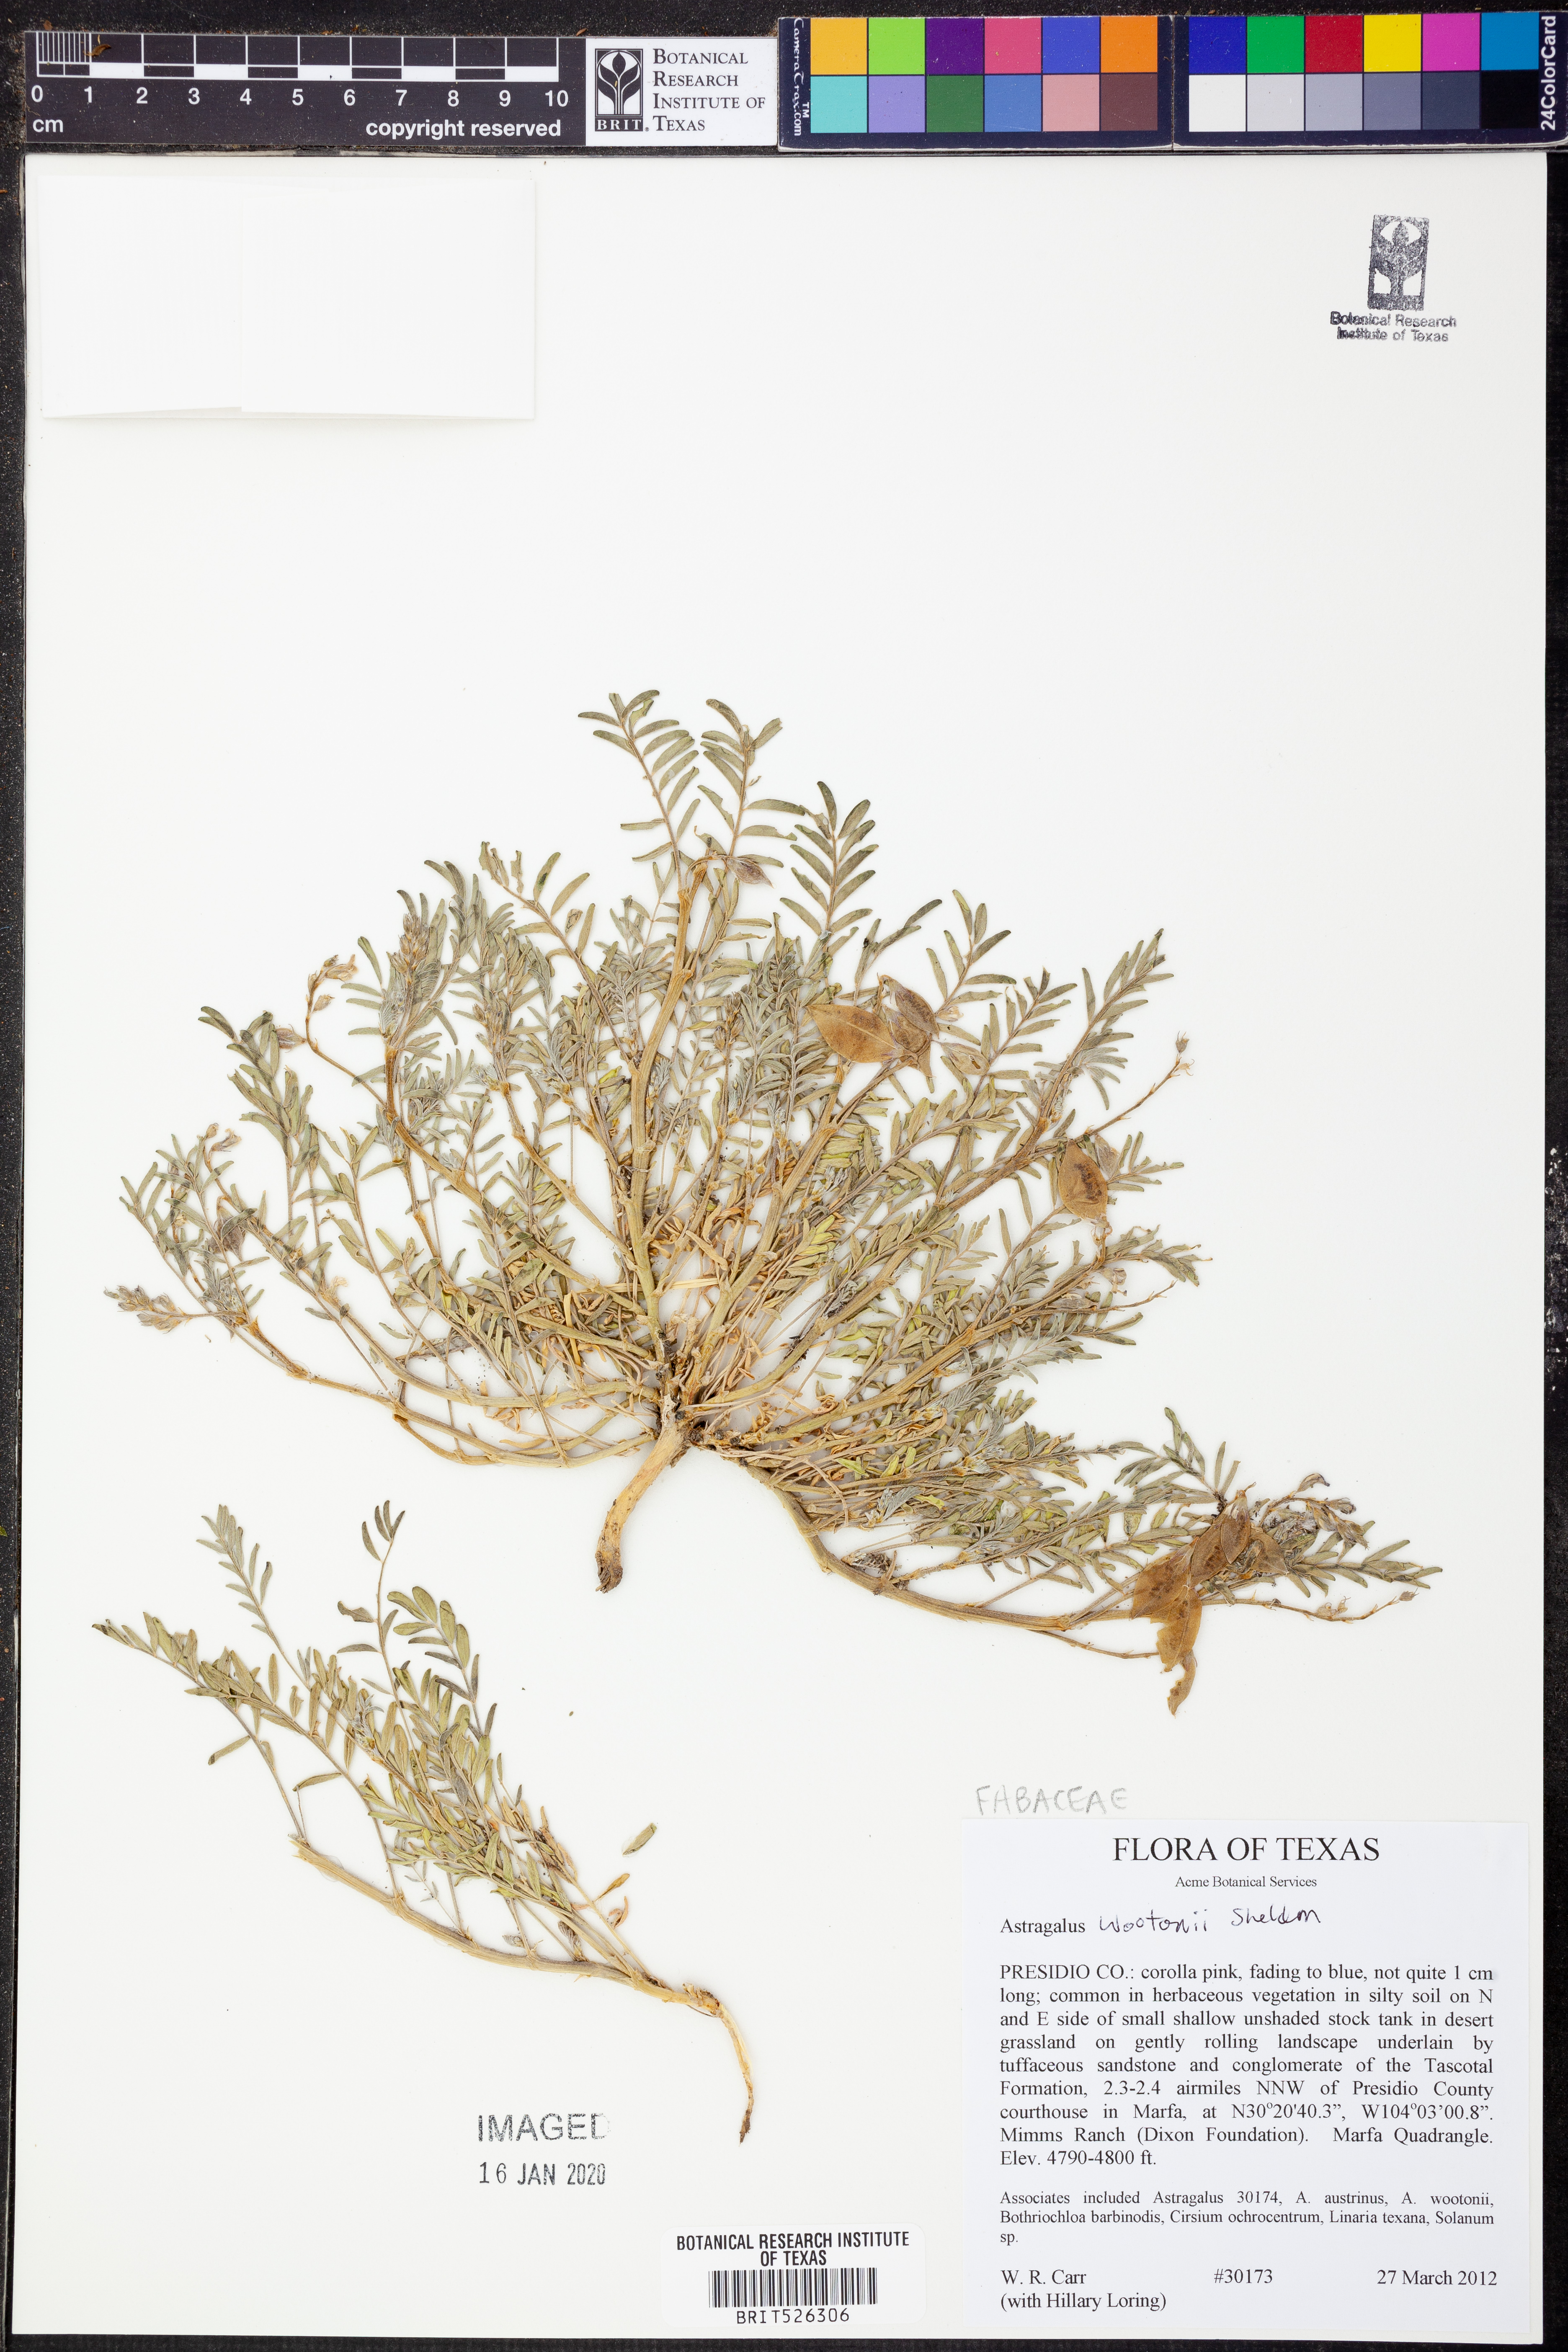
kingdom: Plantae
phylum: Tracheophyta
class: Magnoliopsida
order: Fabales
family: Fabaceae
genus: Astragalus
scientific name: Astragalus wootonii
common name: Wooton's milk-vetch
